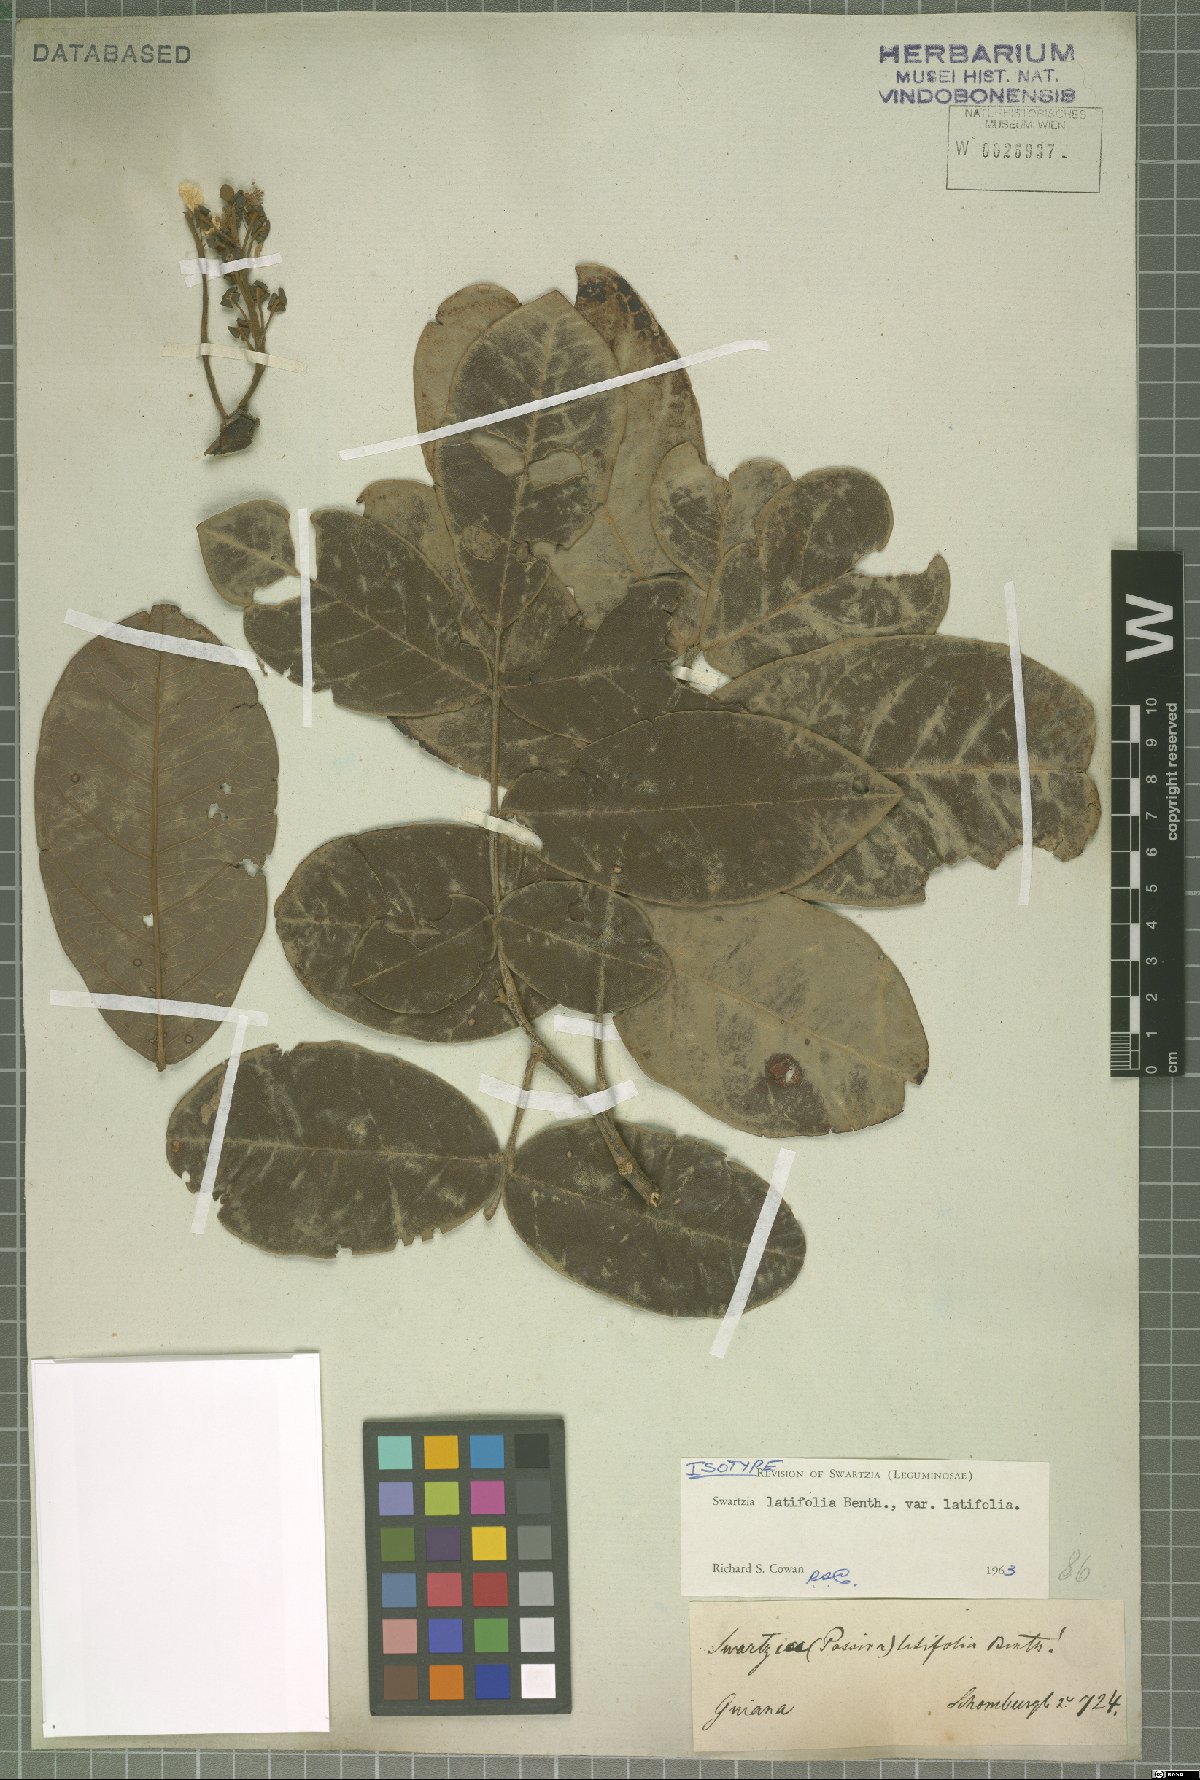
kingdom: Plantae
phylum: Tracheophyta
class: Magnoliopsida
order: Fabales
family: Fabaceae
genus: Swartzia
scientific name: Swartzia latifolia
